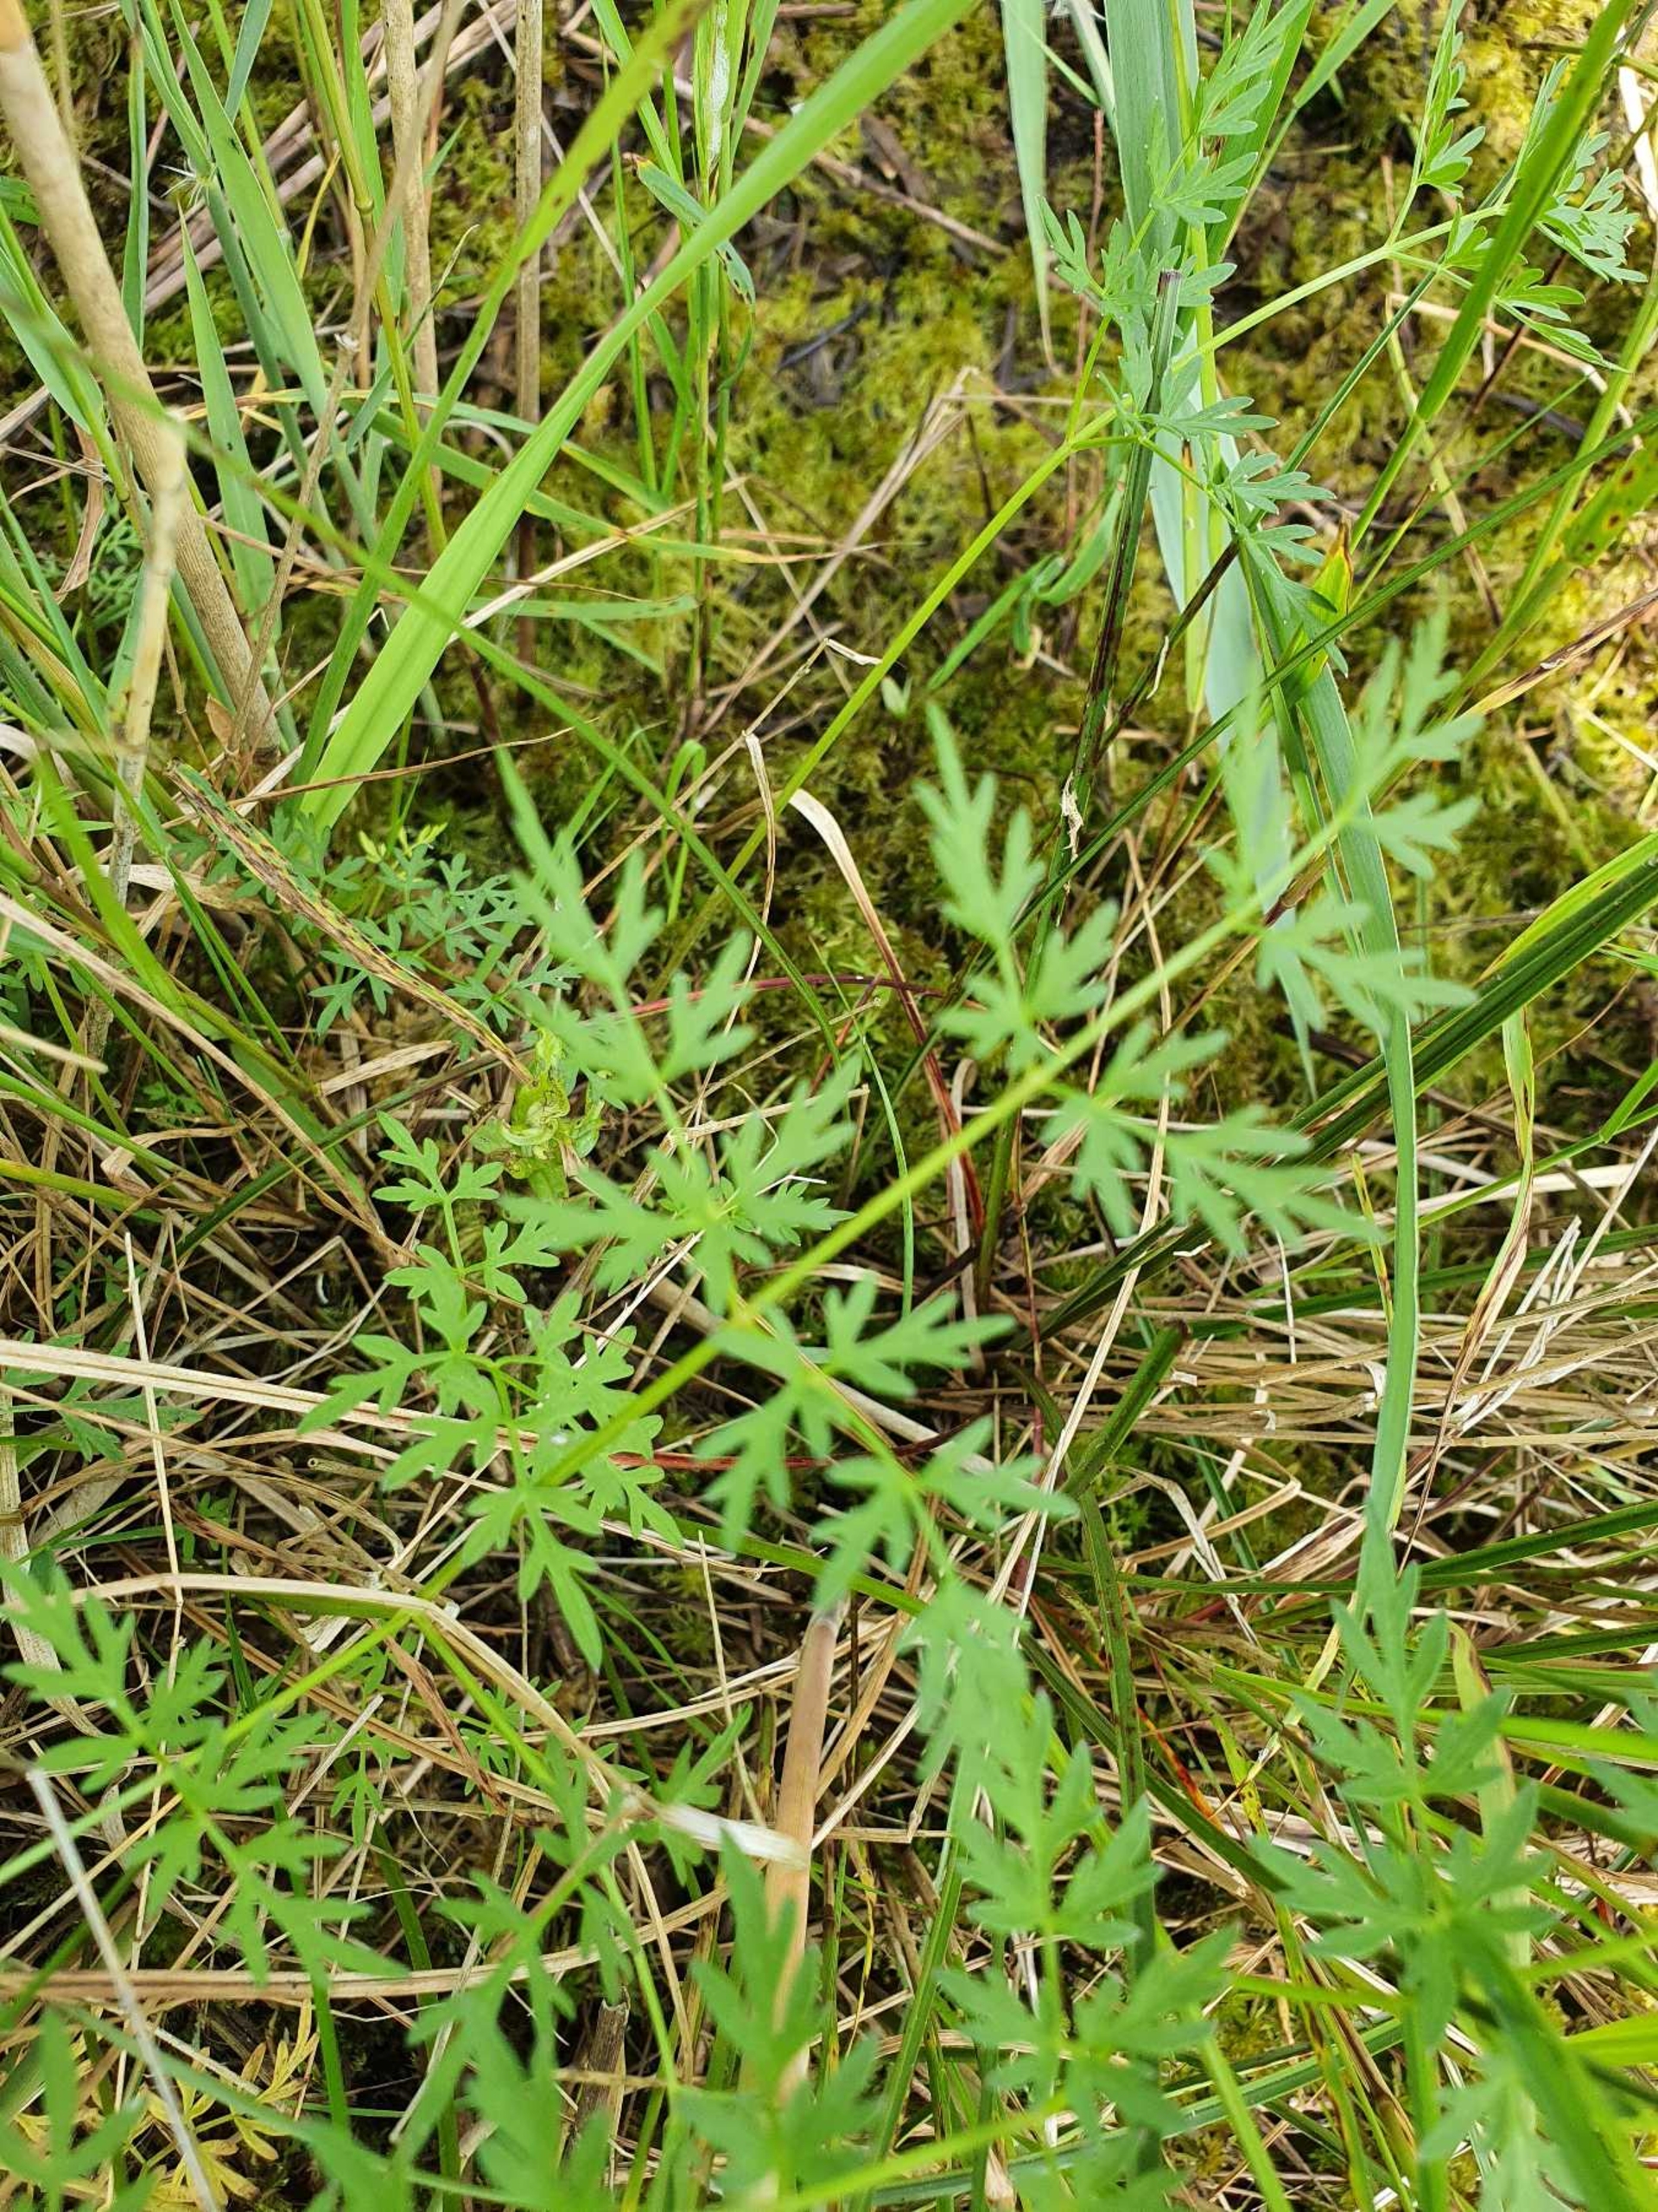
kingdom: Plantae
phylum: Tracheophyta
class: Magnoliopsida
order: Apiales
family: Apiaceae
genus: Thysselinum
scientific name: Thysselinum palustre
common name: Kær-svovlrod
